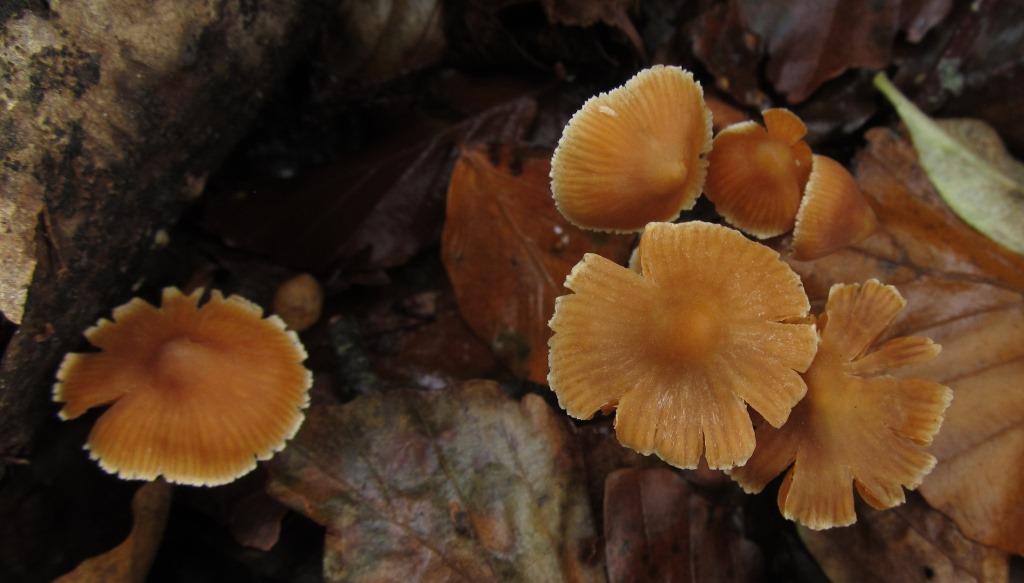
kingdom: Fungi
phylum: Basidiomycota
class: Agaricomycetes
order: Agaricales
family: Cortinariaceae
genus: Cortinarius
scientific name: Cortinarius mammillatus
